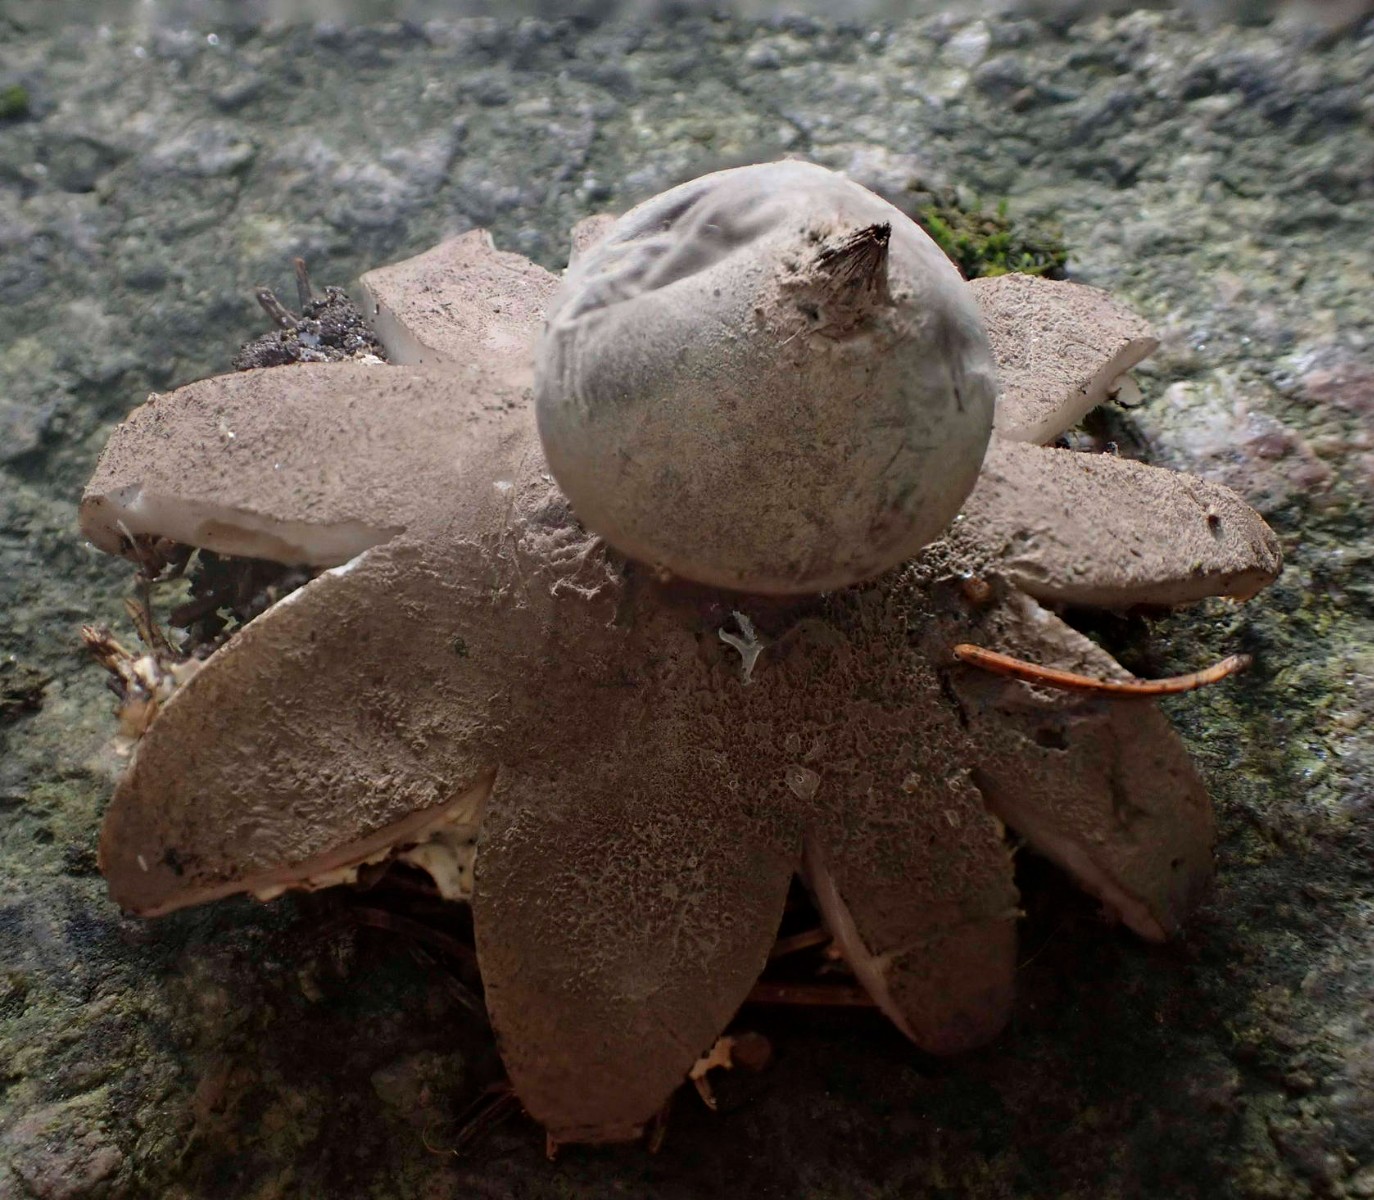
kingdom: Fungi
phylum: Basidiomycota
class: Agaricomycetes
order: Geastrales
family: Geastraceae
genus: Geastrum
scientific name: Geastrum pectinatum
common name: stilket stjernebold
